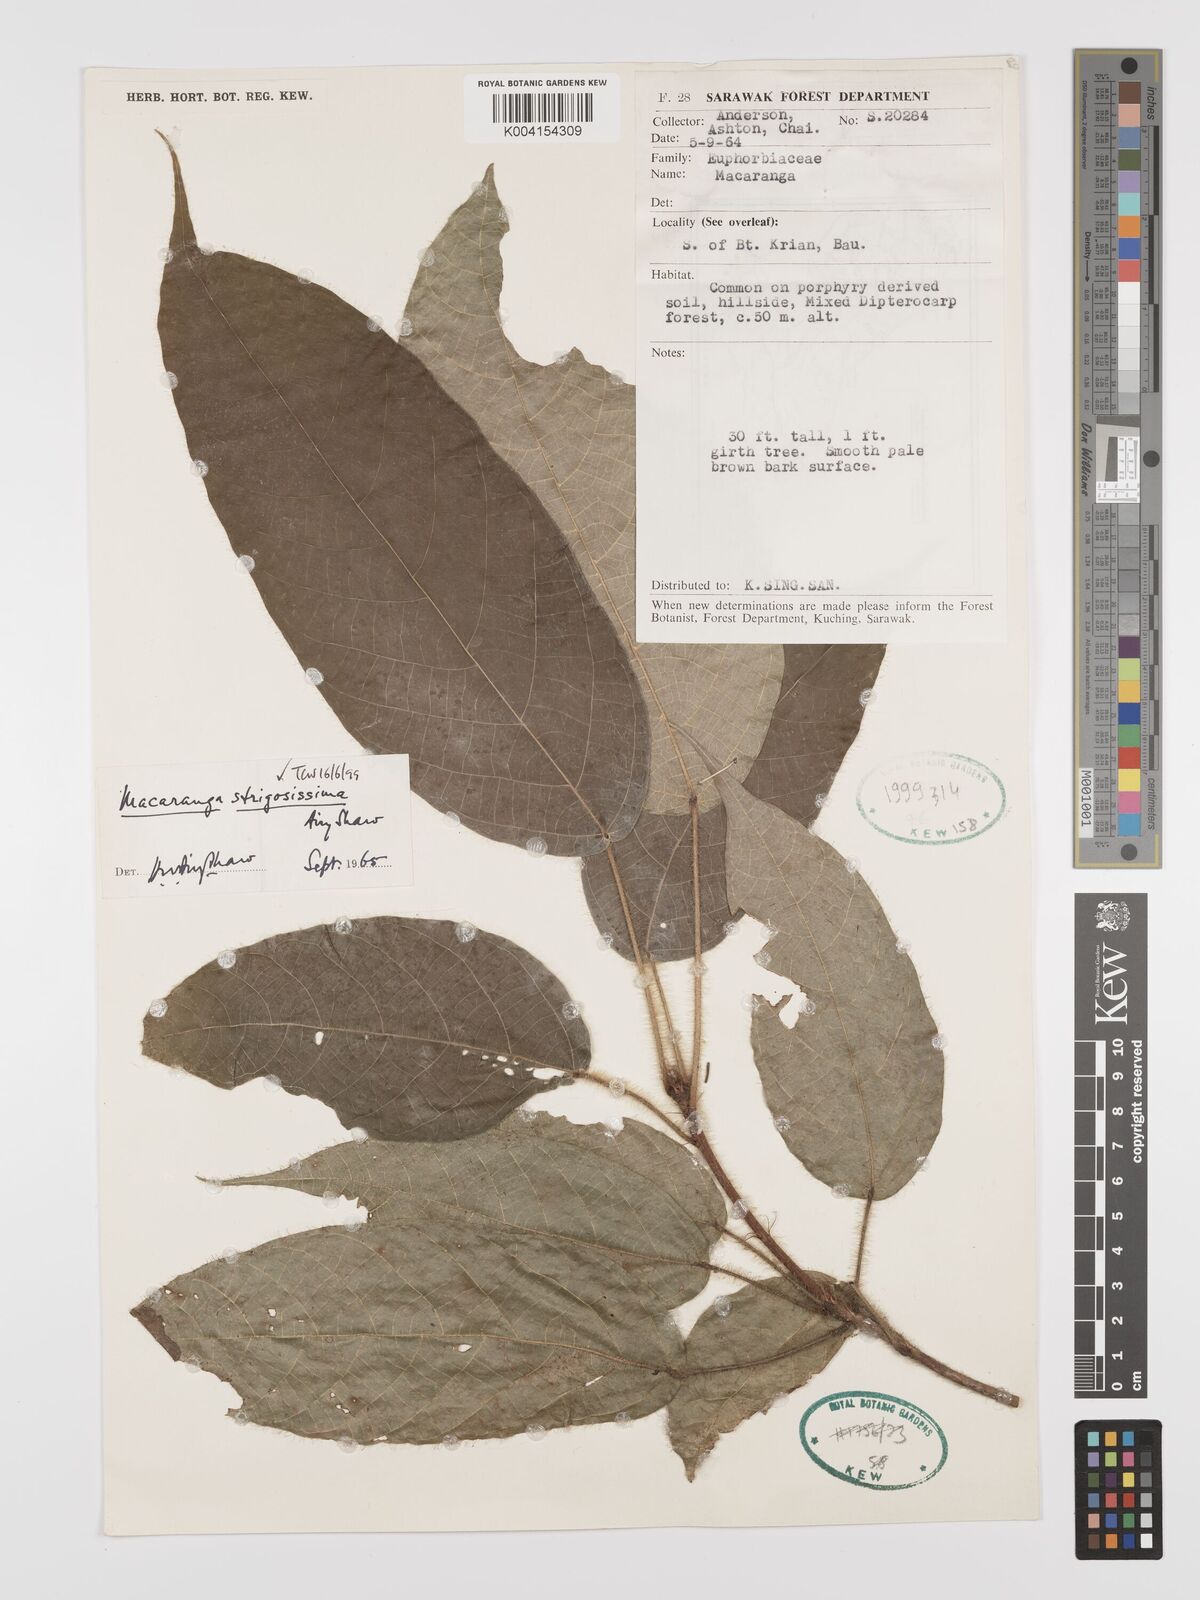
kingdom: Plantae
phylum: Tracheophyta
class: Magnoliopsida
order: Malpighiales
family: Euphorbiaceae
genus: Macaranga
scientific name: Macaranga strigosissima
